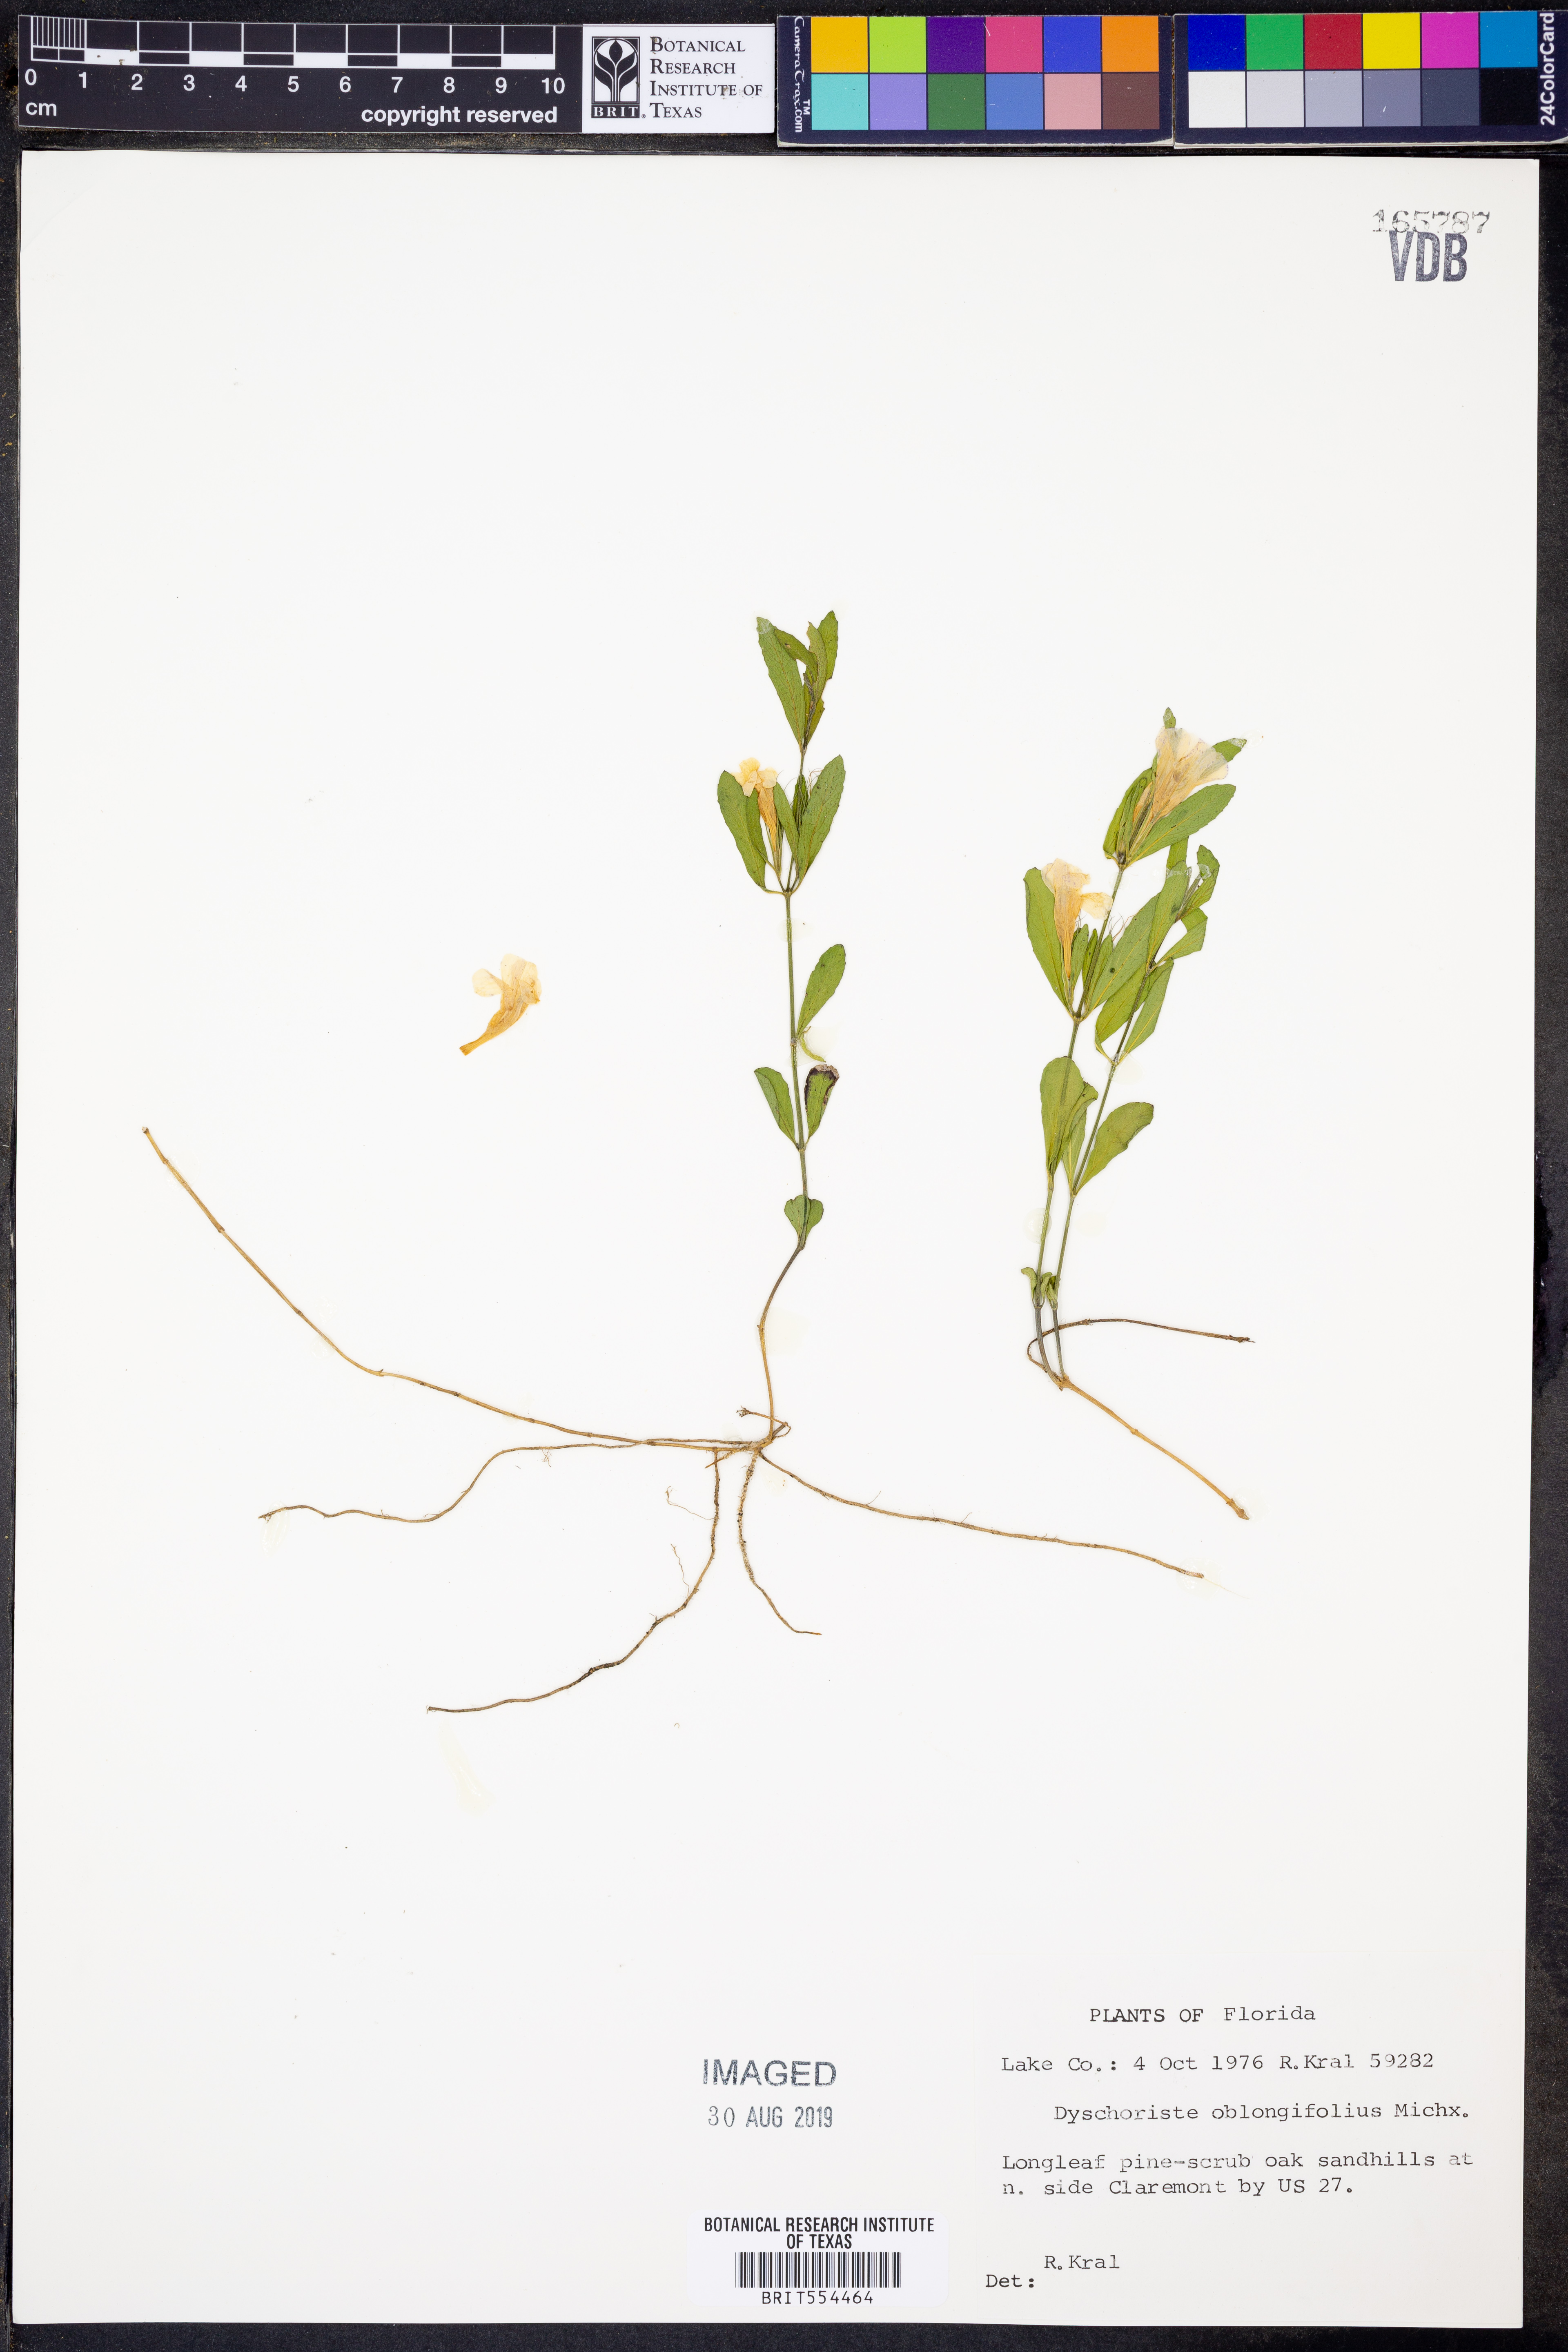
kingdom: Plantae
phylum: Tracheophyta
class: Magnoliopsida
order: Lamiales
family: Acanthaceae
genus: Dyschoriste
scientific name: Dyschoriste oblongifolia
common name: Blue twinflower
